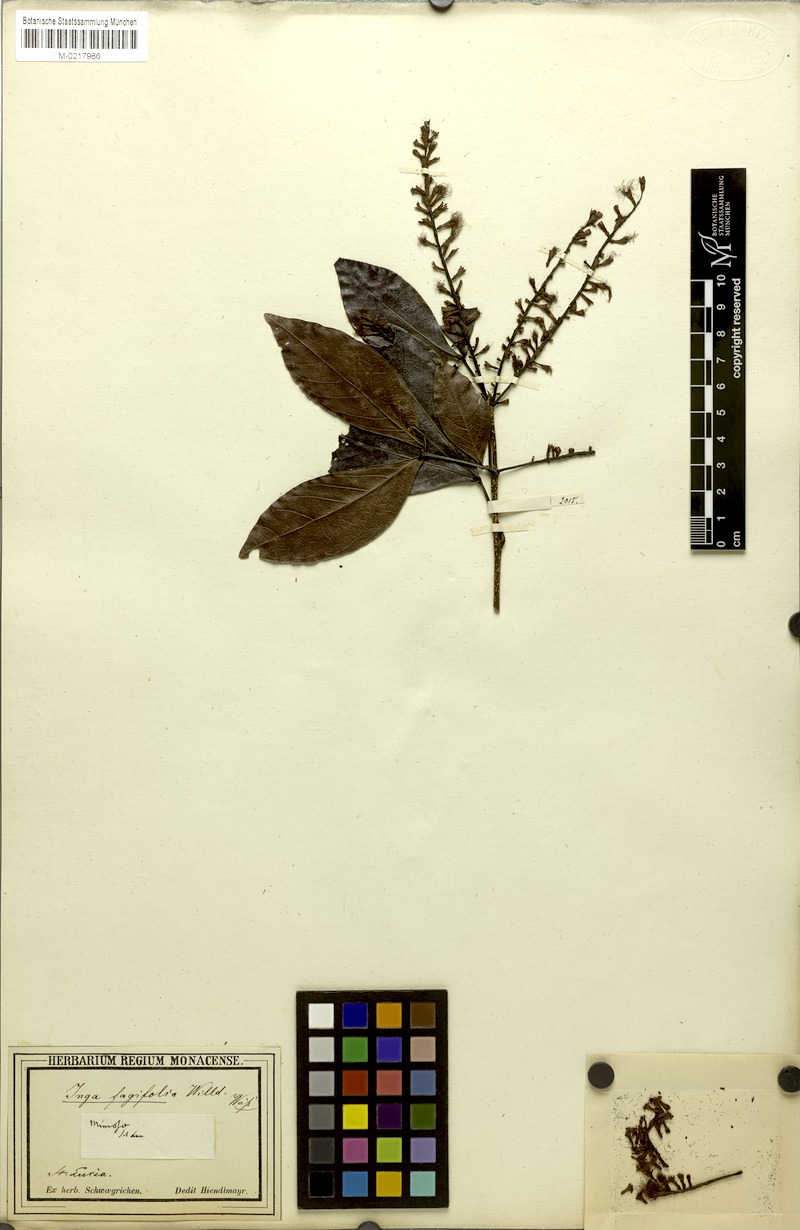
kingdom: Plantae
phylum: Tracheophyta
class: Magnoliopsida
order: Fabales
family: Fabaceae
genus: Inga
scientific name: Inga laurina
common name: Red wood
